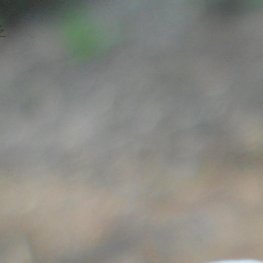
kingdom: Animalia
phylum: Arthropoda
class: Insecta
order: Lepidoptera
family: Lycaenidae
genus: Glaucopsyche
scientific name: Glaucopsyche lygdamus
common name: Silvery Blue
